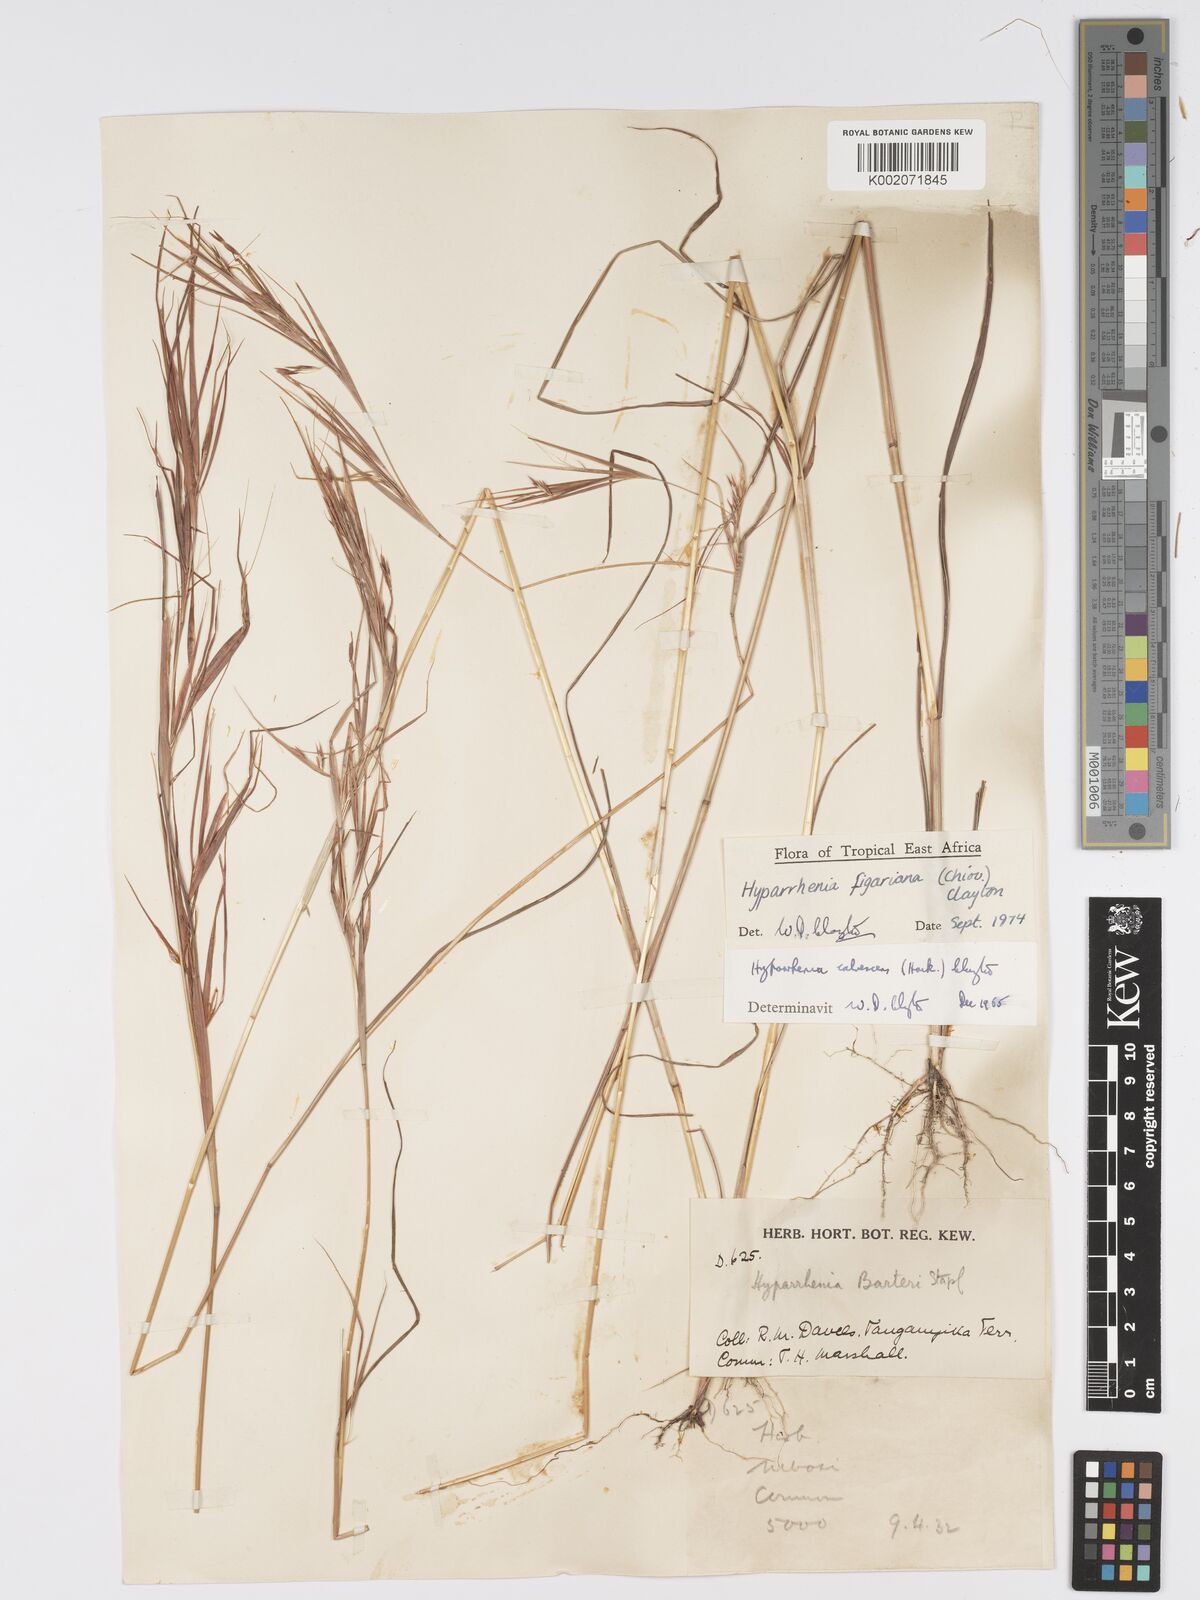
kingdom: Plantae
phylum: Tracheophyta
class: Liliopsida
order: Poales
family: Poaceae
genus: Hyparrhenia
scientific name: Hyparrhenia figariana
